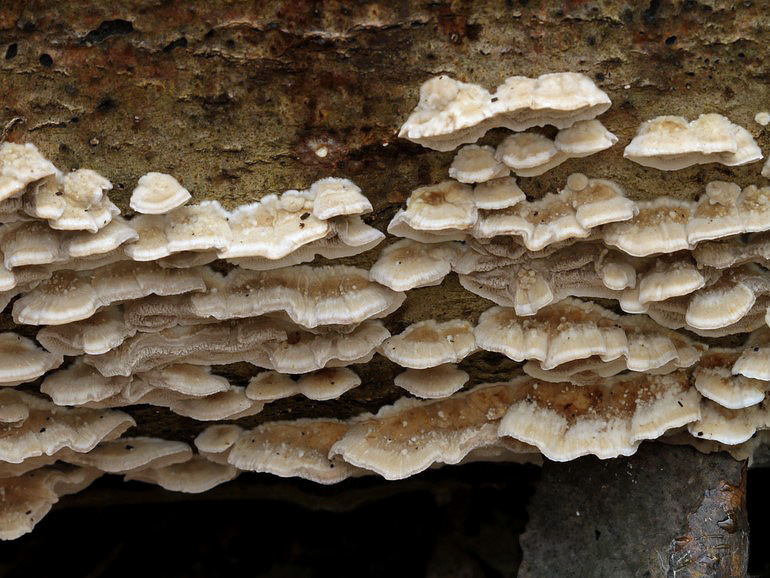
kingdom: Fungi
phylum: Basidiomycota
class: Agaricomycetes
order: Polyporales
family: Phanerochaetaceae
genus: Bjerkandera
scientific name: Bjerkandera fumosa
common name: grågul sodporesvamp
